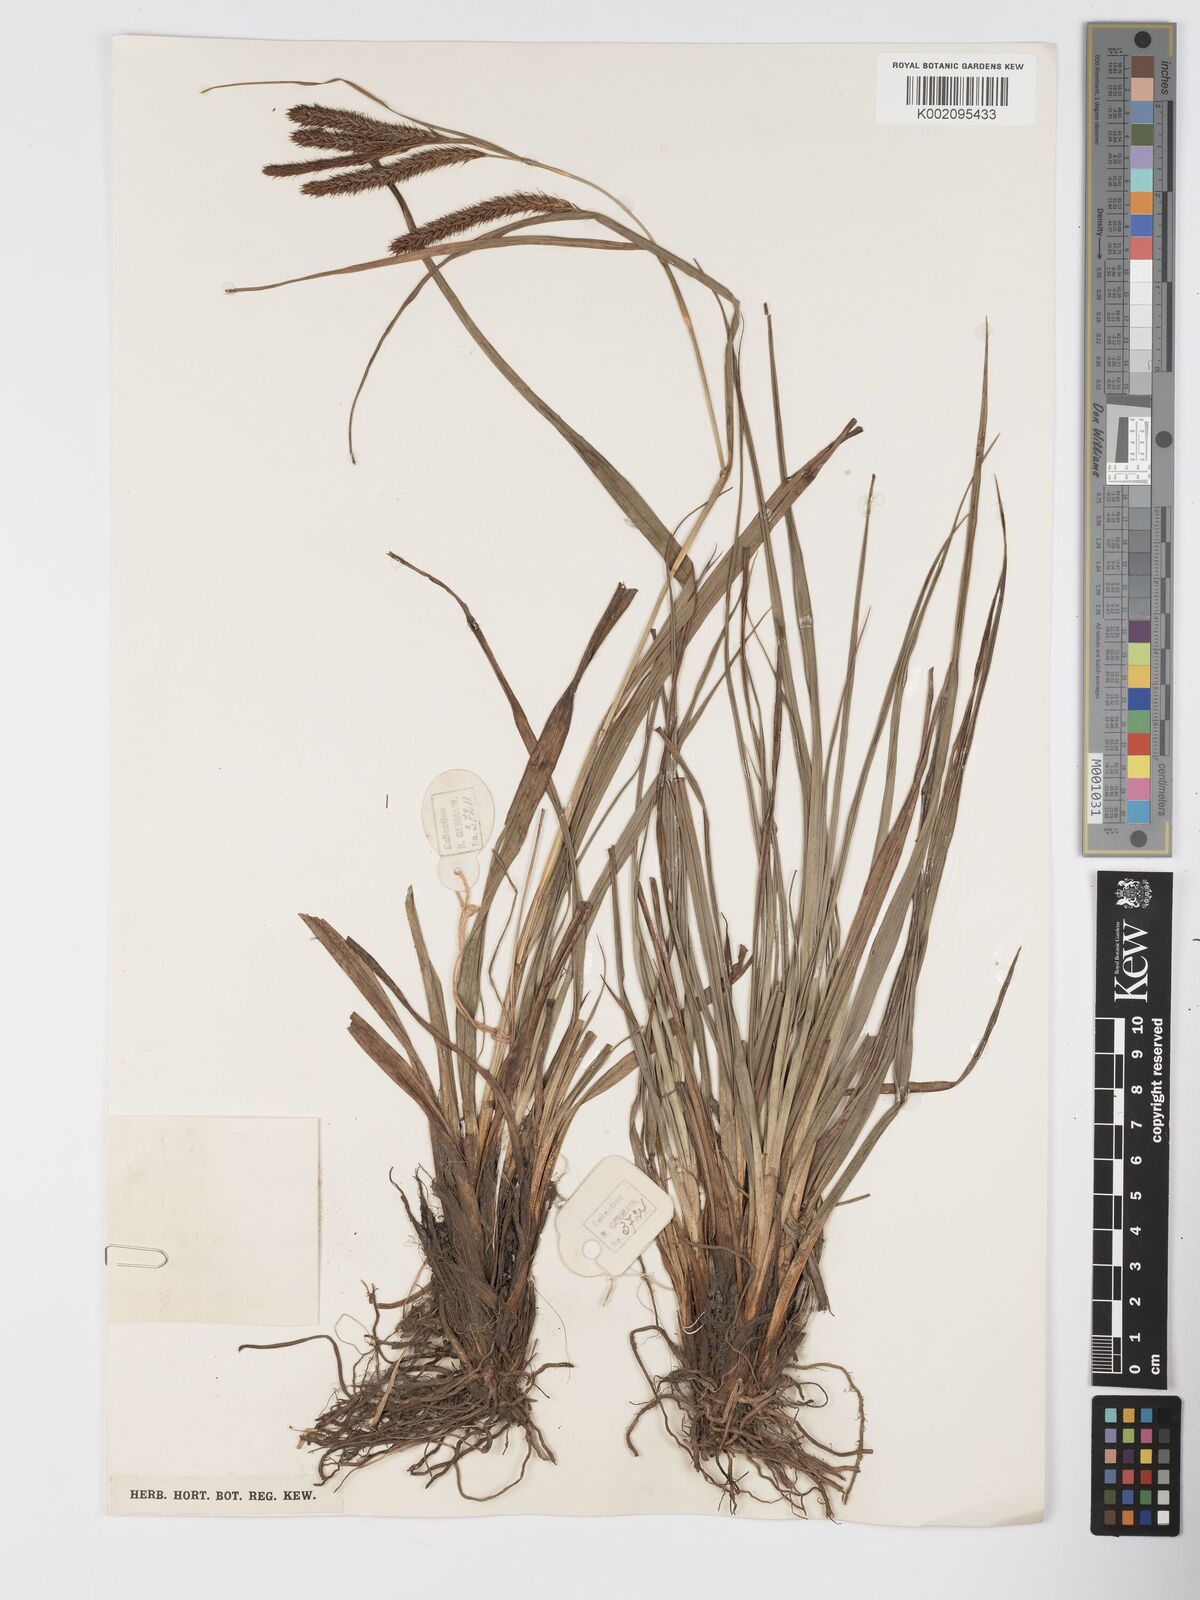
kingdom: Plantae
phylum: Tracheophyta
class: Liliopsida
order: Poales
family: Cyperaceae
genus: Carex
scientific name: Carex fischeri
